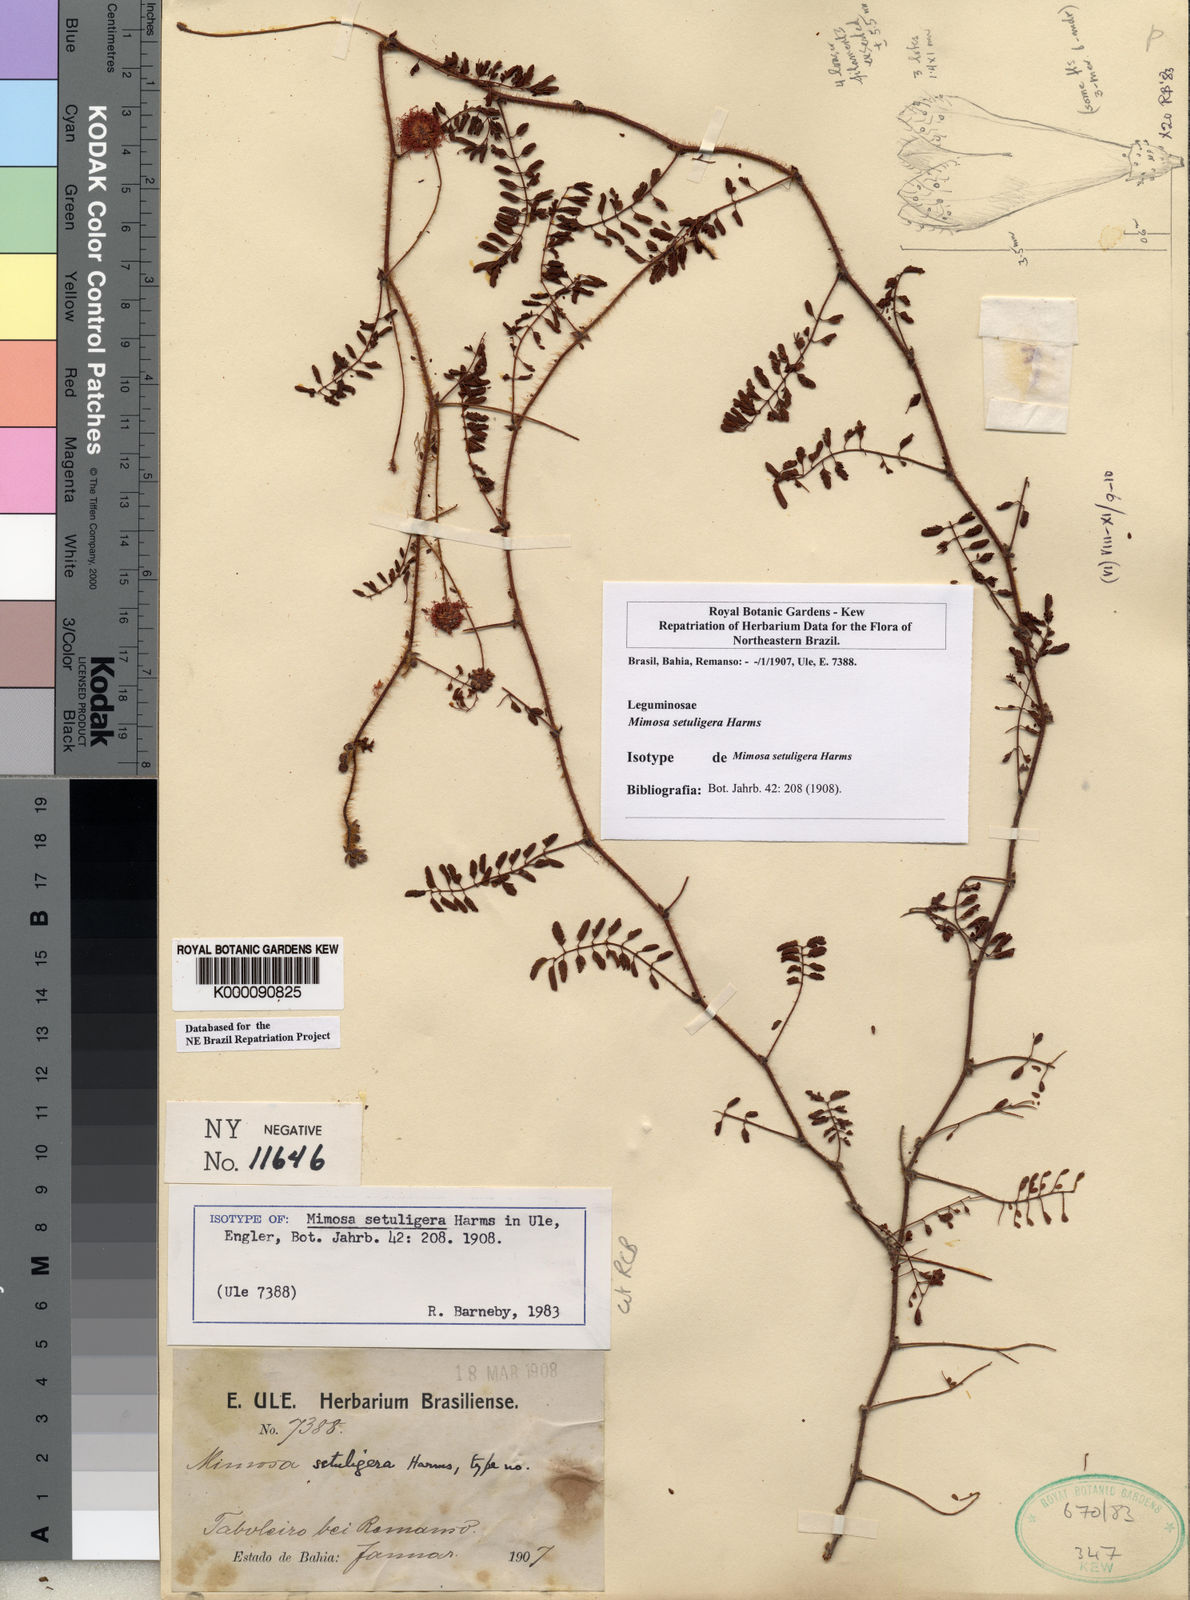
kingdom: Plantae
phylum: Tracheophyta
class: Magnoliopsida
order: Fabales
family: Fabaceae
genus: Mimosa
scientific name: Mimosa setuligera
